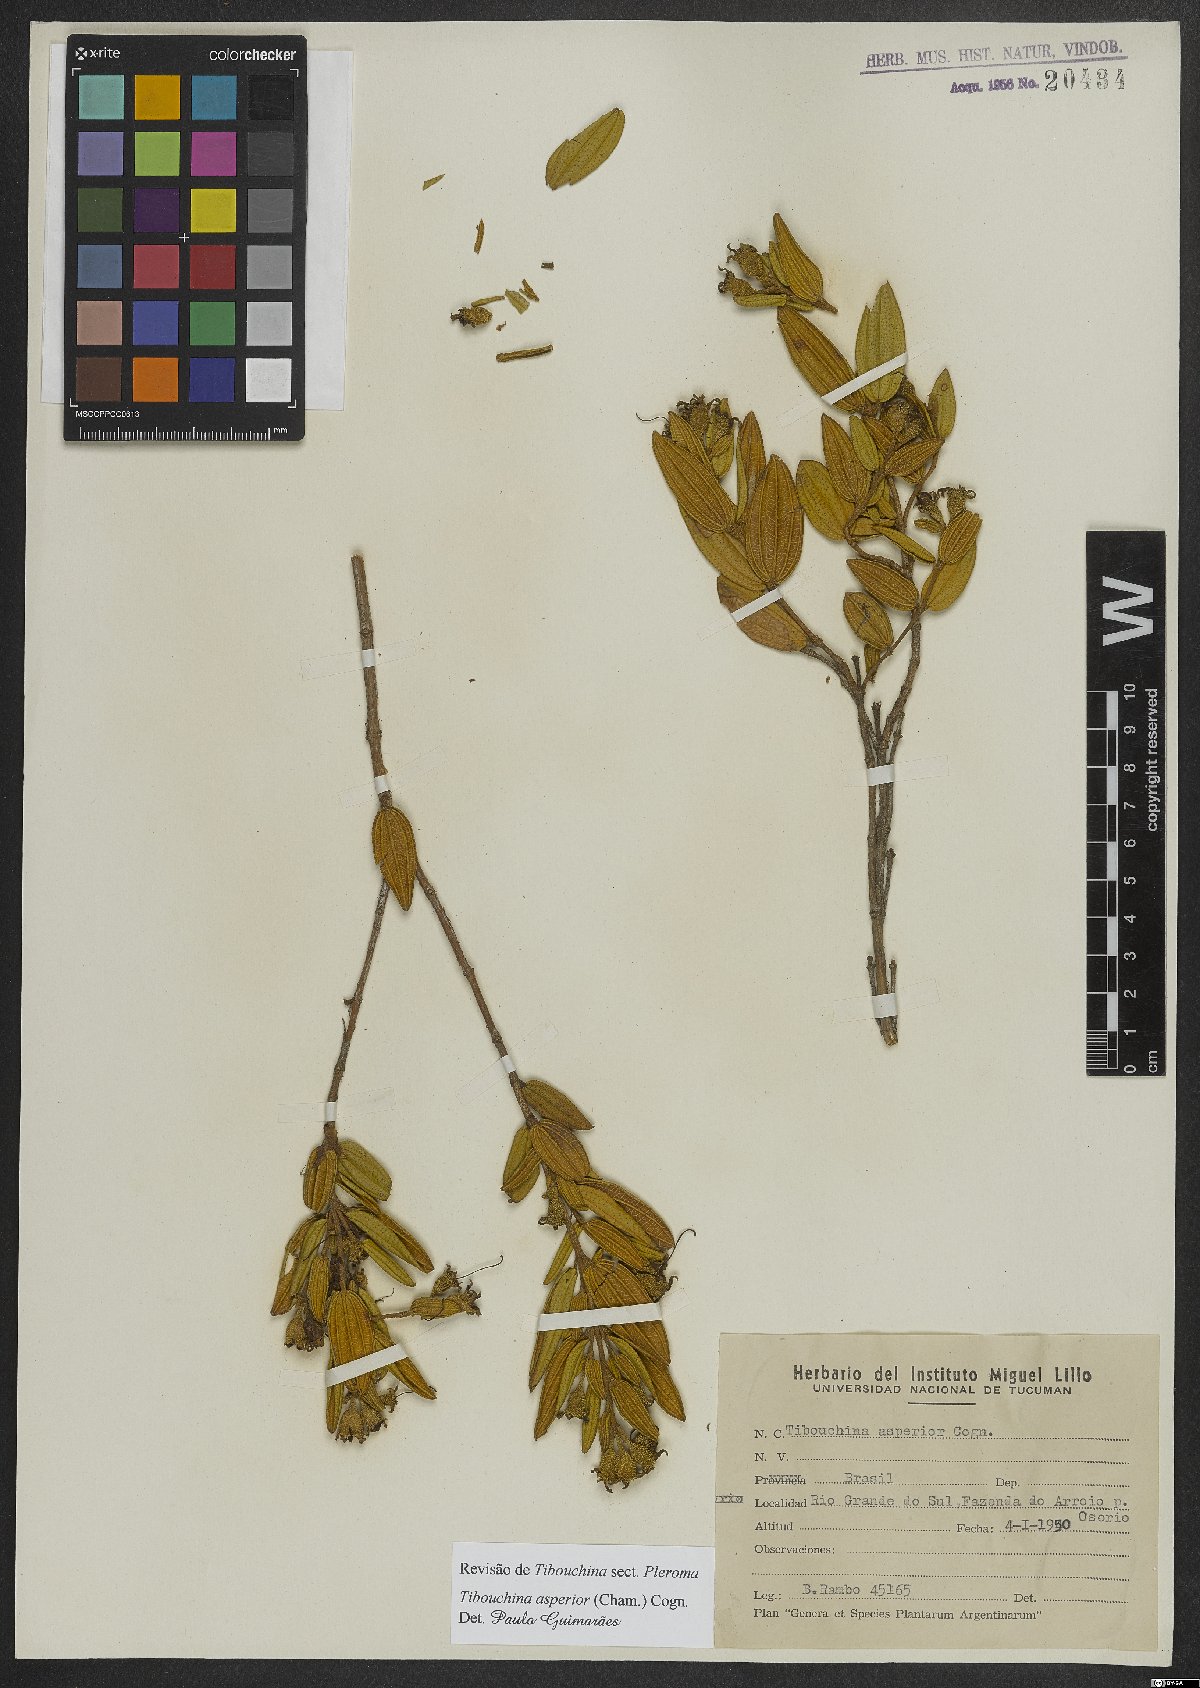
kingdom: Plantae
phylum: Tracheophyta
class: Magnoliopsida
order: Myrtales
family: Melastomataceae
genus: Pleroma
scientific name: Pleroma asperius
